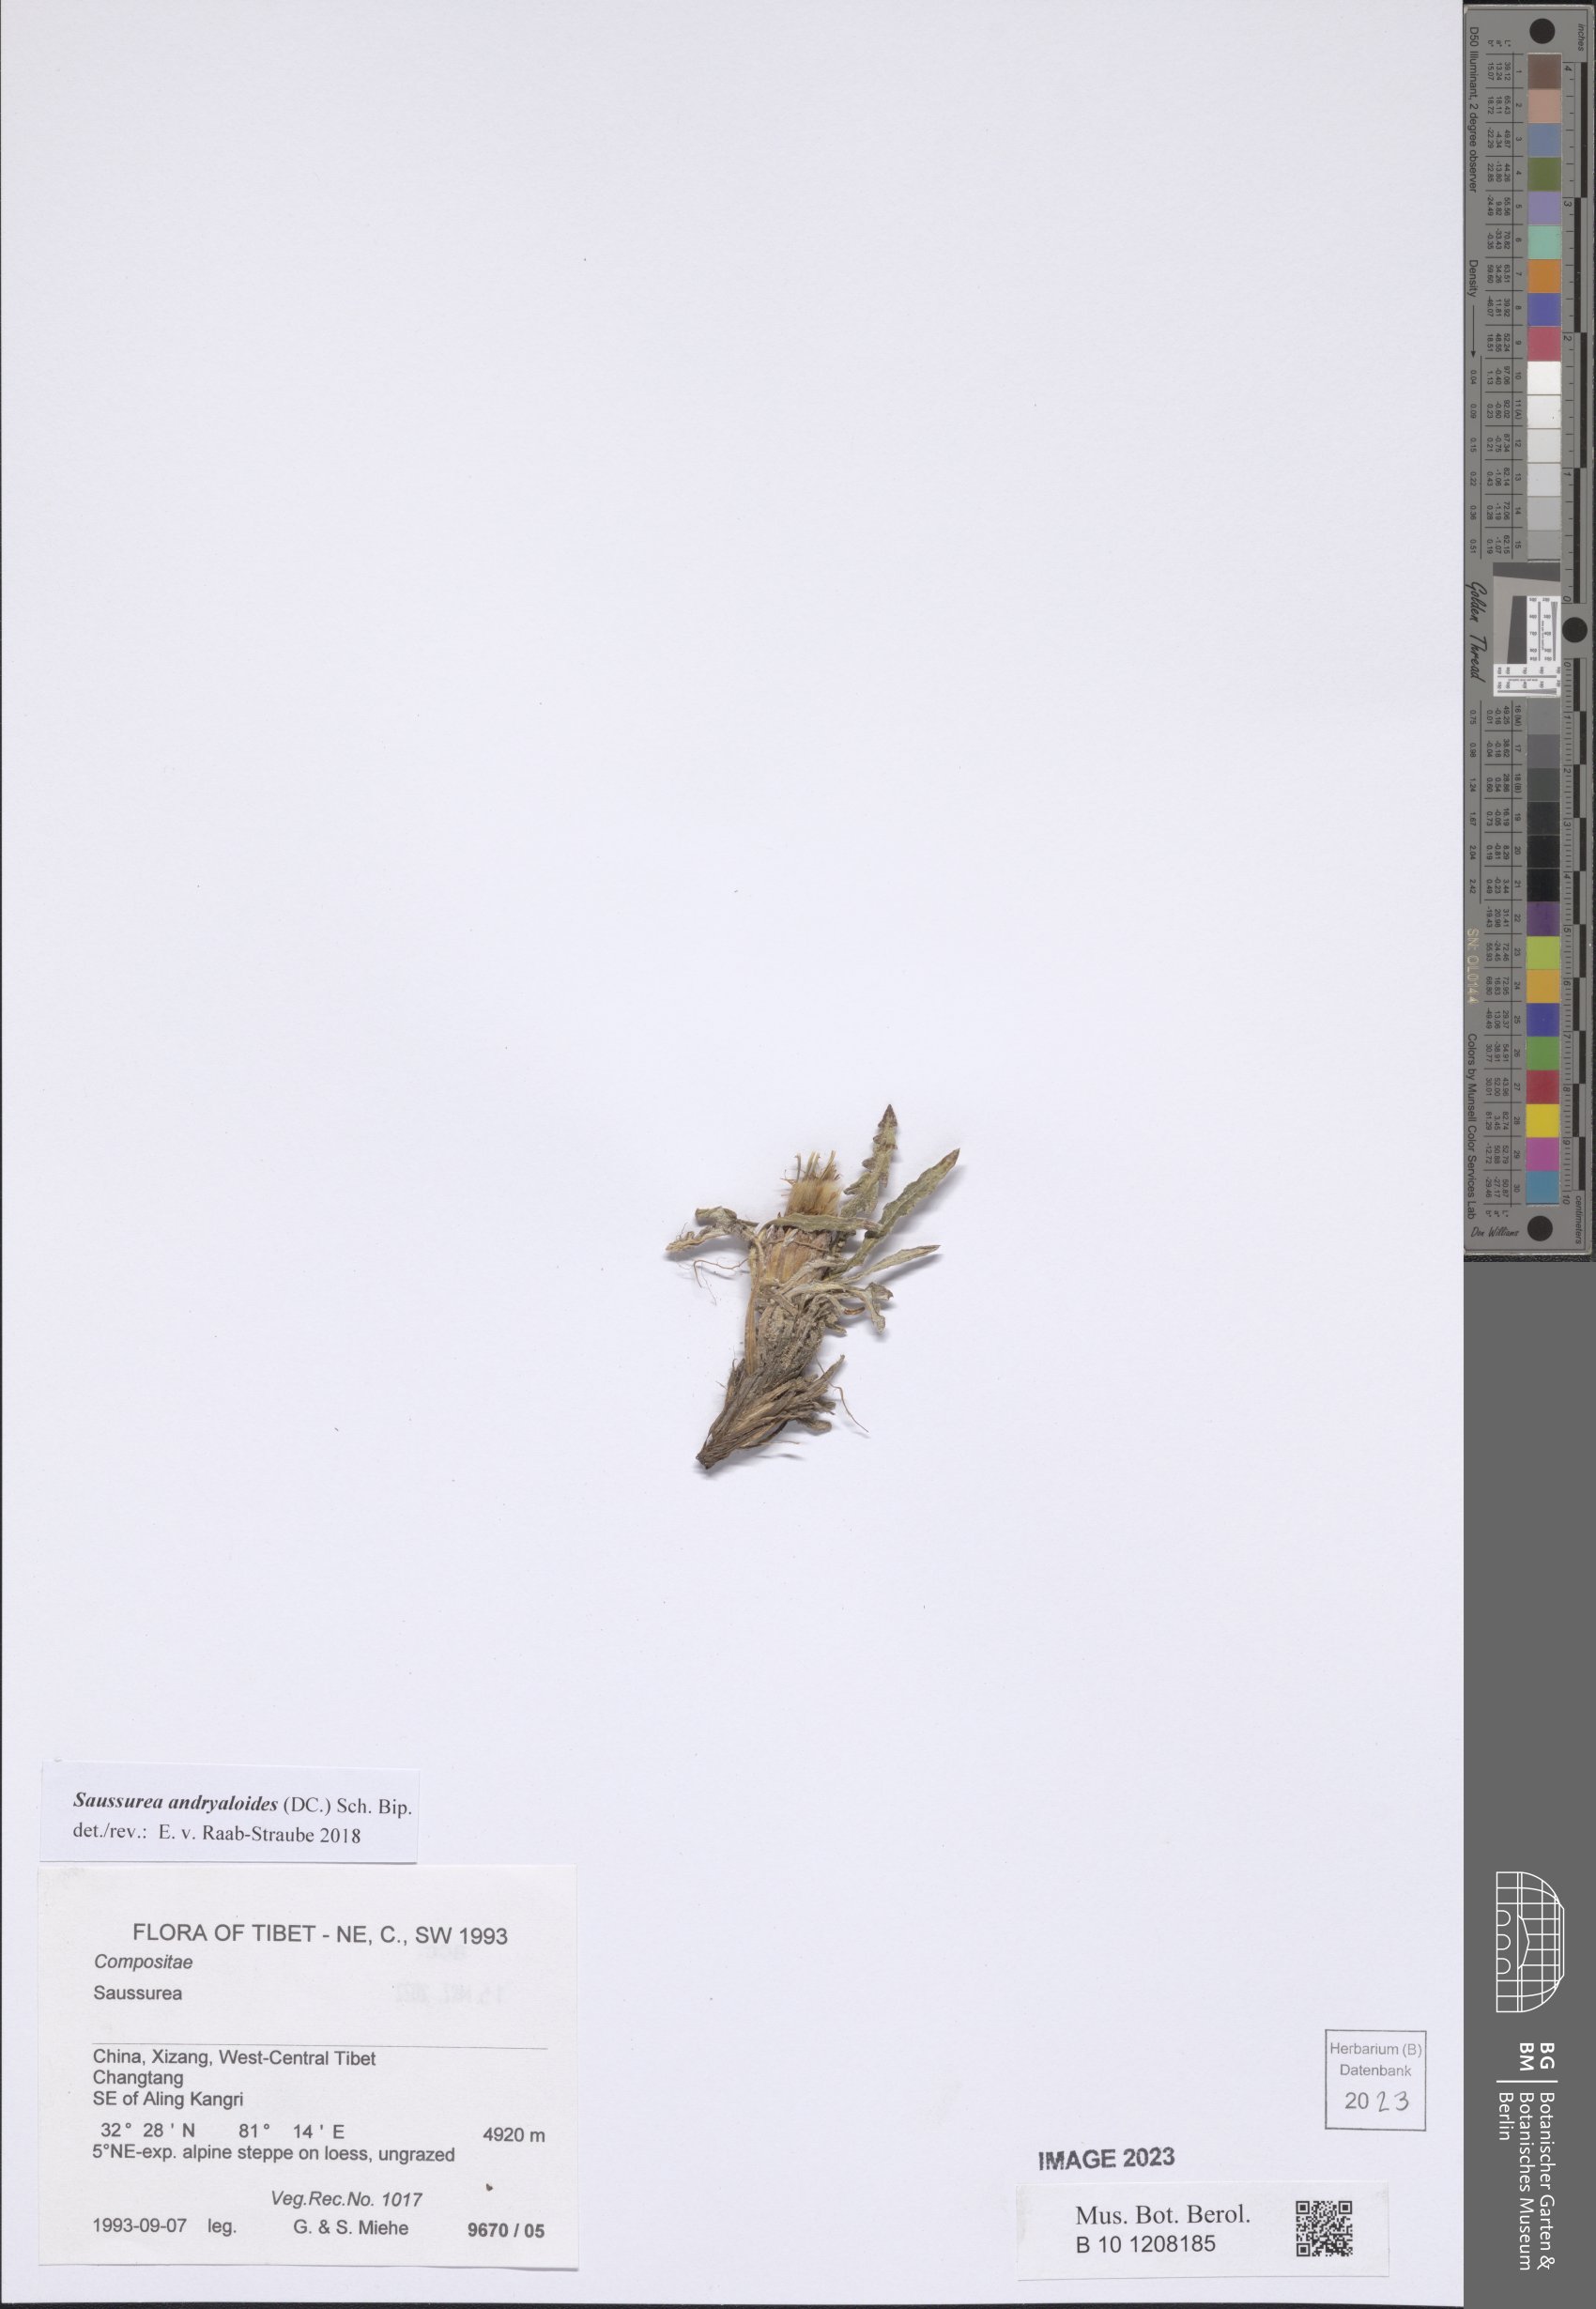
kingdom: Plantae
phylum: Tracheophyta
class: Magnoliopsida
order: Asterales
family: Asteraceae
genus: Saussurea
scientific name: Saussurea andryaloides
